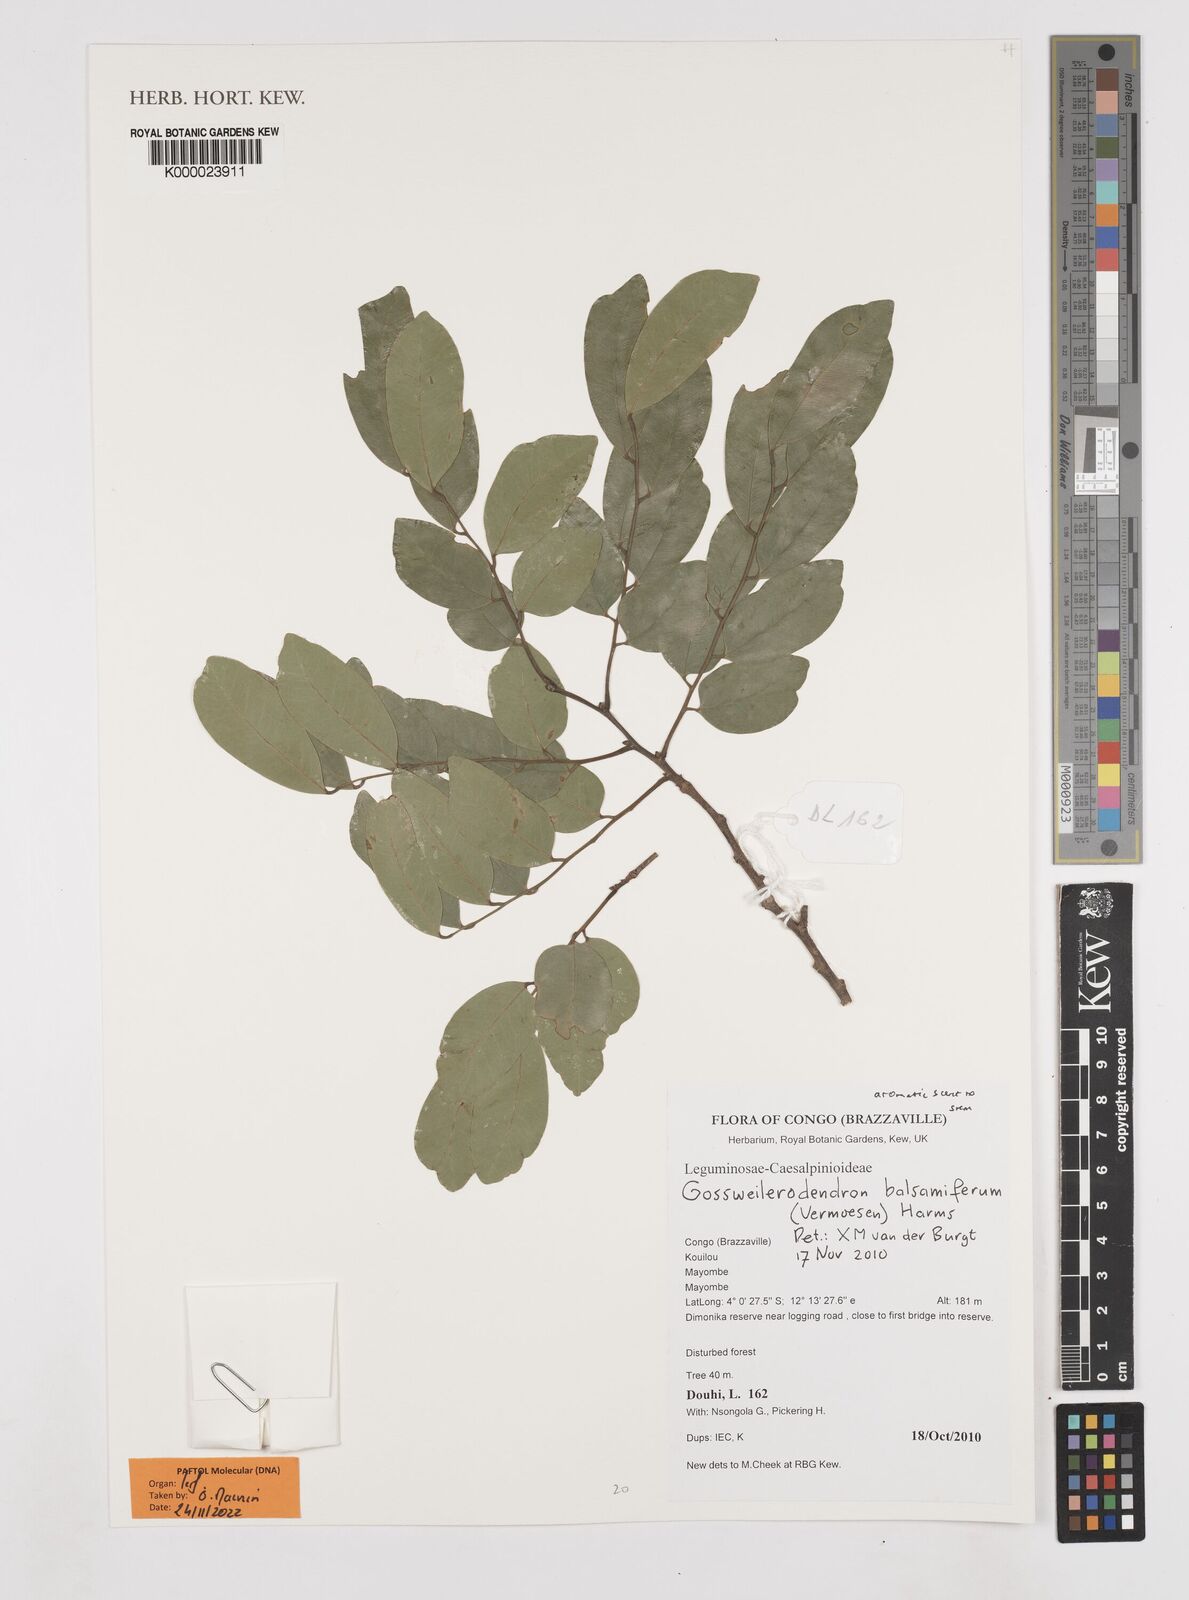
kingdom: Plantae
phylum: Tracheophyta
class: Magnoliopsida
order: Fabales
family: Fabaceae
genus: Prioria
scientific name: Prioria balsamifera
